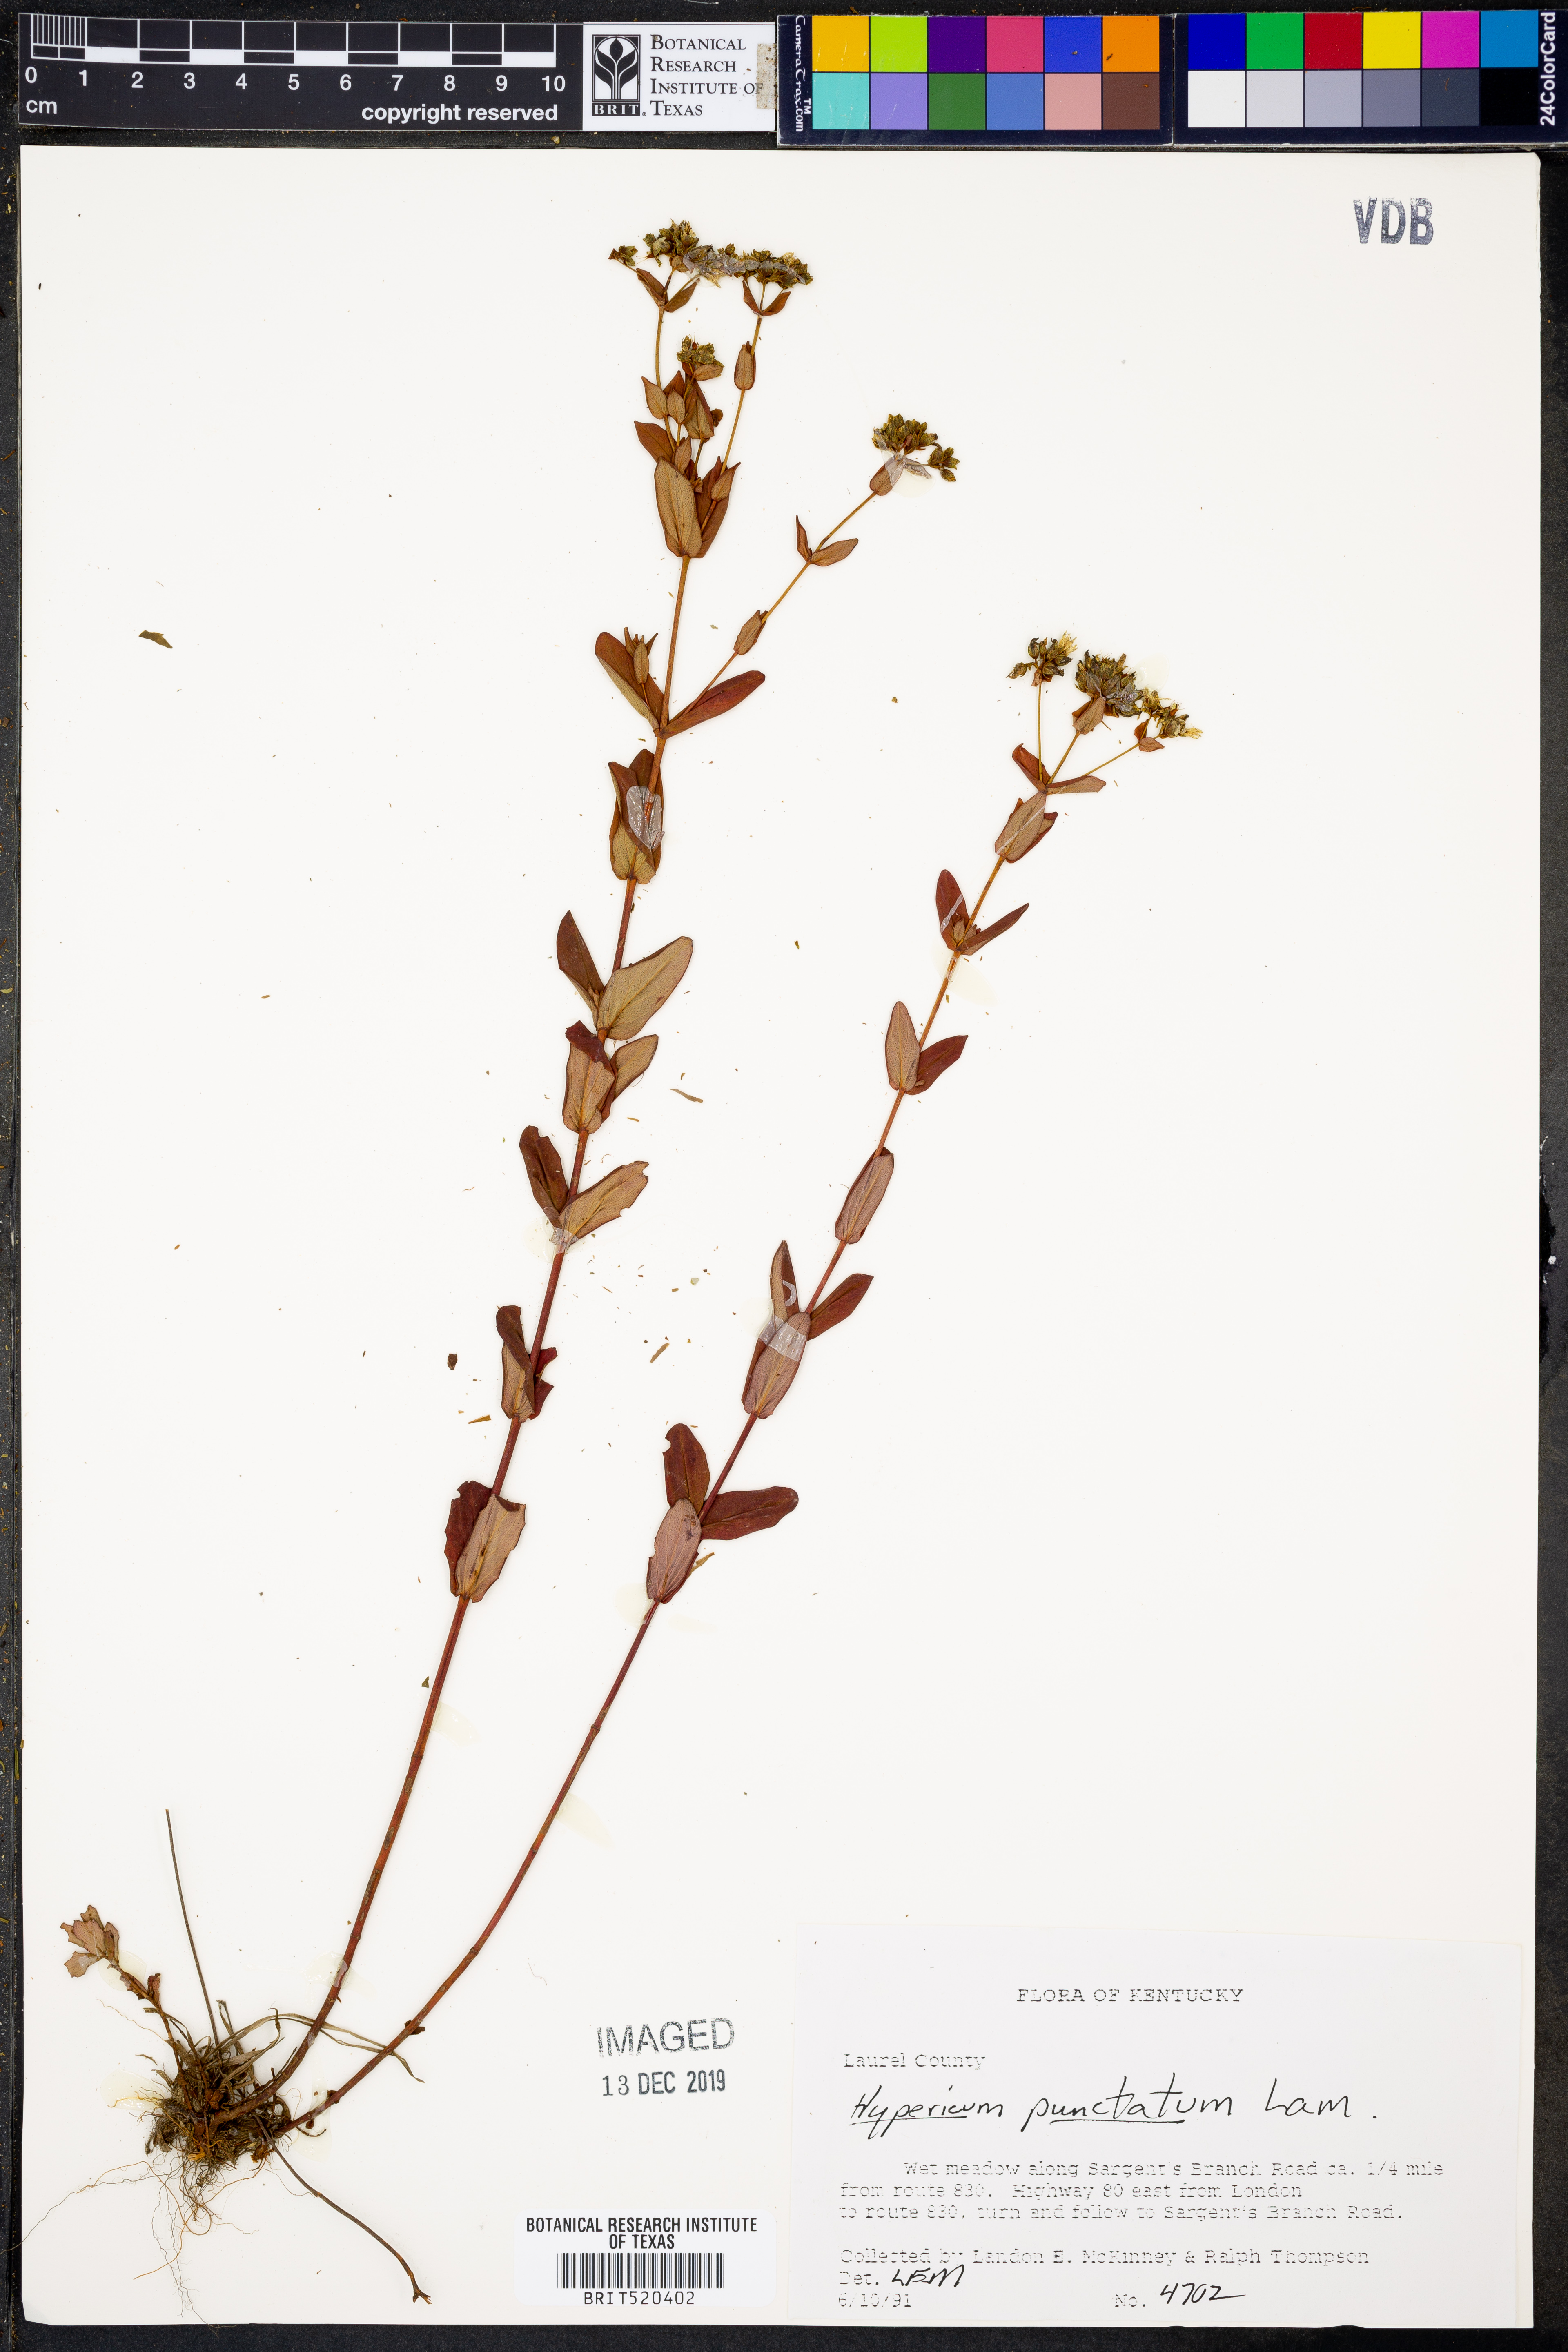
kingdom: Plantae
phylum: Tracheophyta
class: Magnoliopsida
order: Malpighiales
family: Hypericaceae
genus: Hypericum
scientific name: Hypericum punctatum
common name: Spotted st. john's-wort
